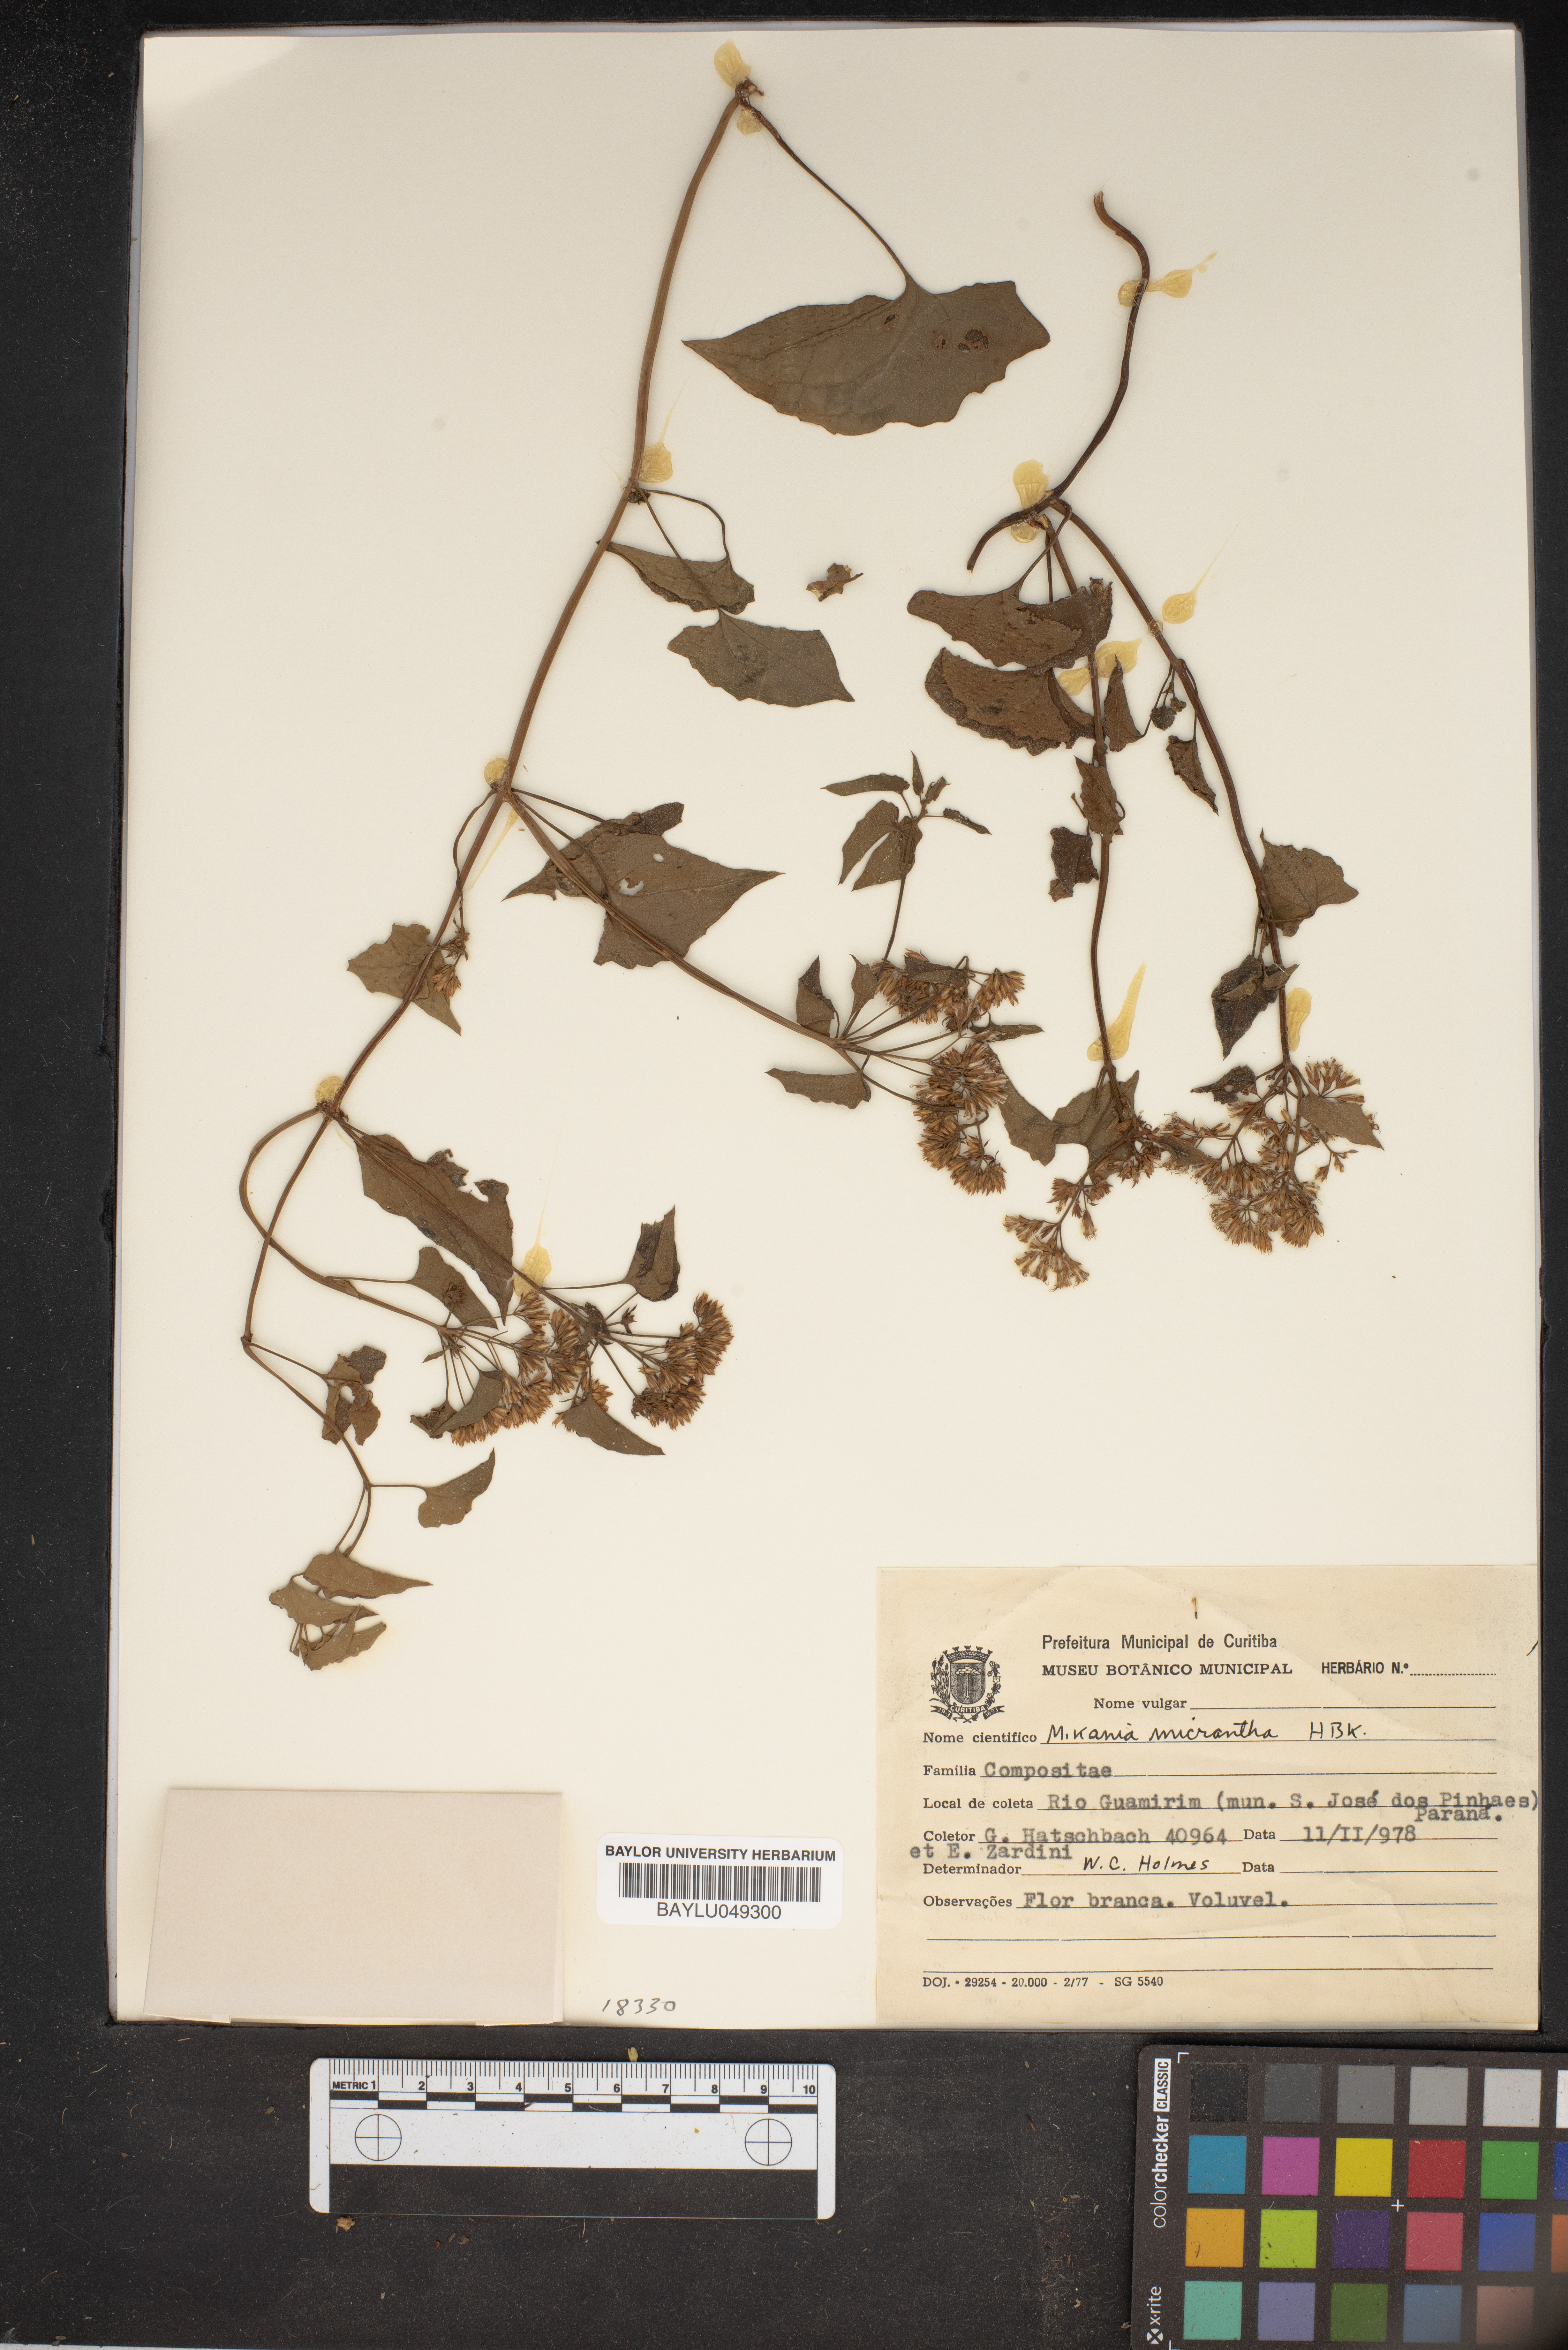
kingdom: Plantae
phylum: Tracheophyta
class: Magnoliopsida
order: Asterales
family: Asteraceae
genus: Mikania
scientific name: Mikania micrantha
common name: Mile-a-minute
